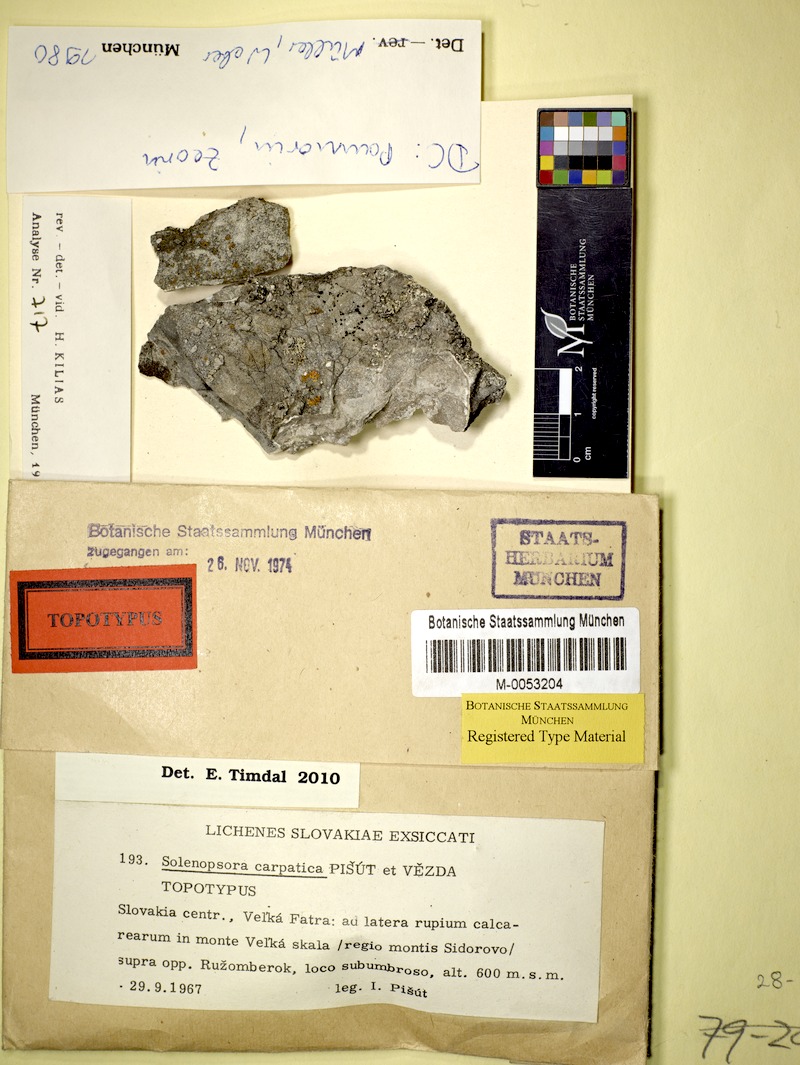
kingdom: Fungi
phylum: Ascomycota
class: Lecanoromycetes
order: Lecanorales
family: Catillariaceae
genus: Solenopsora
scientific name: Solenopsora carpatica
